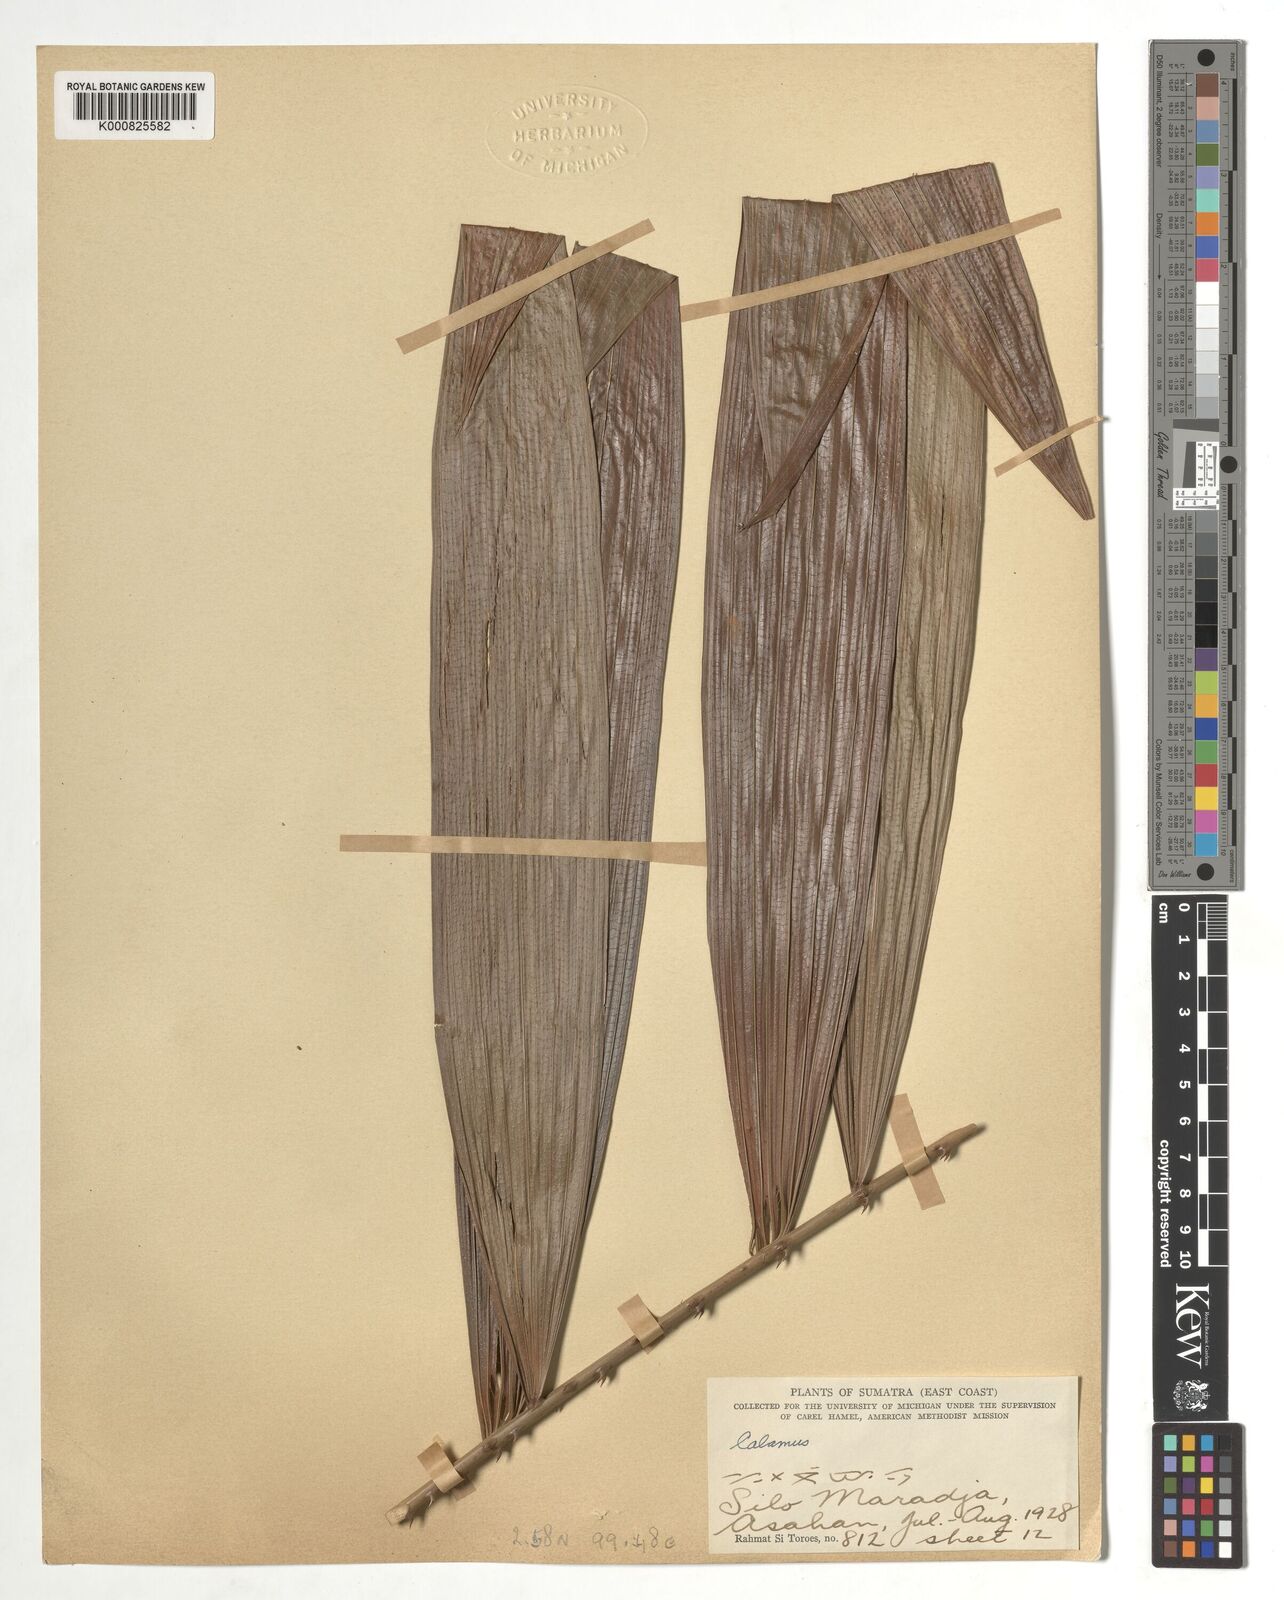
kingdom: Plantae
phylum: Tracheophyta
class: Liliopsida
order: Arecales
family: Arecaceae
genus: Calamus
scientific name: Calamus
